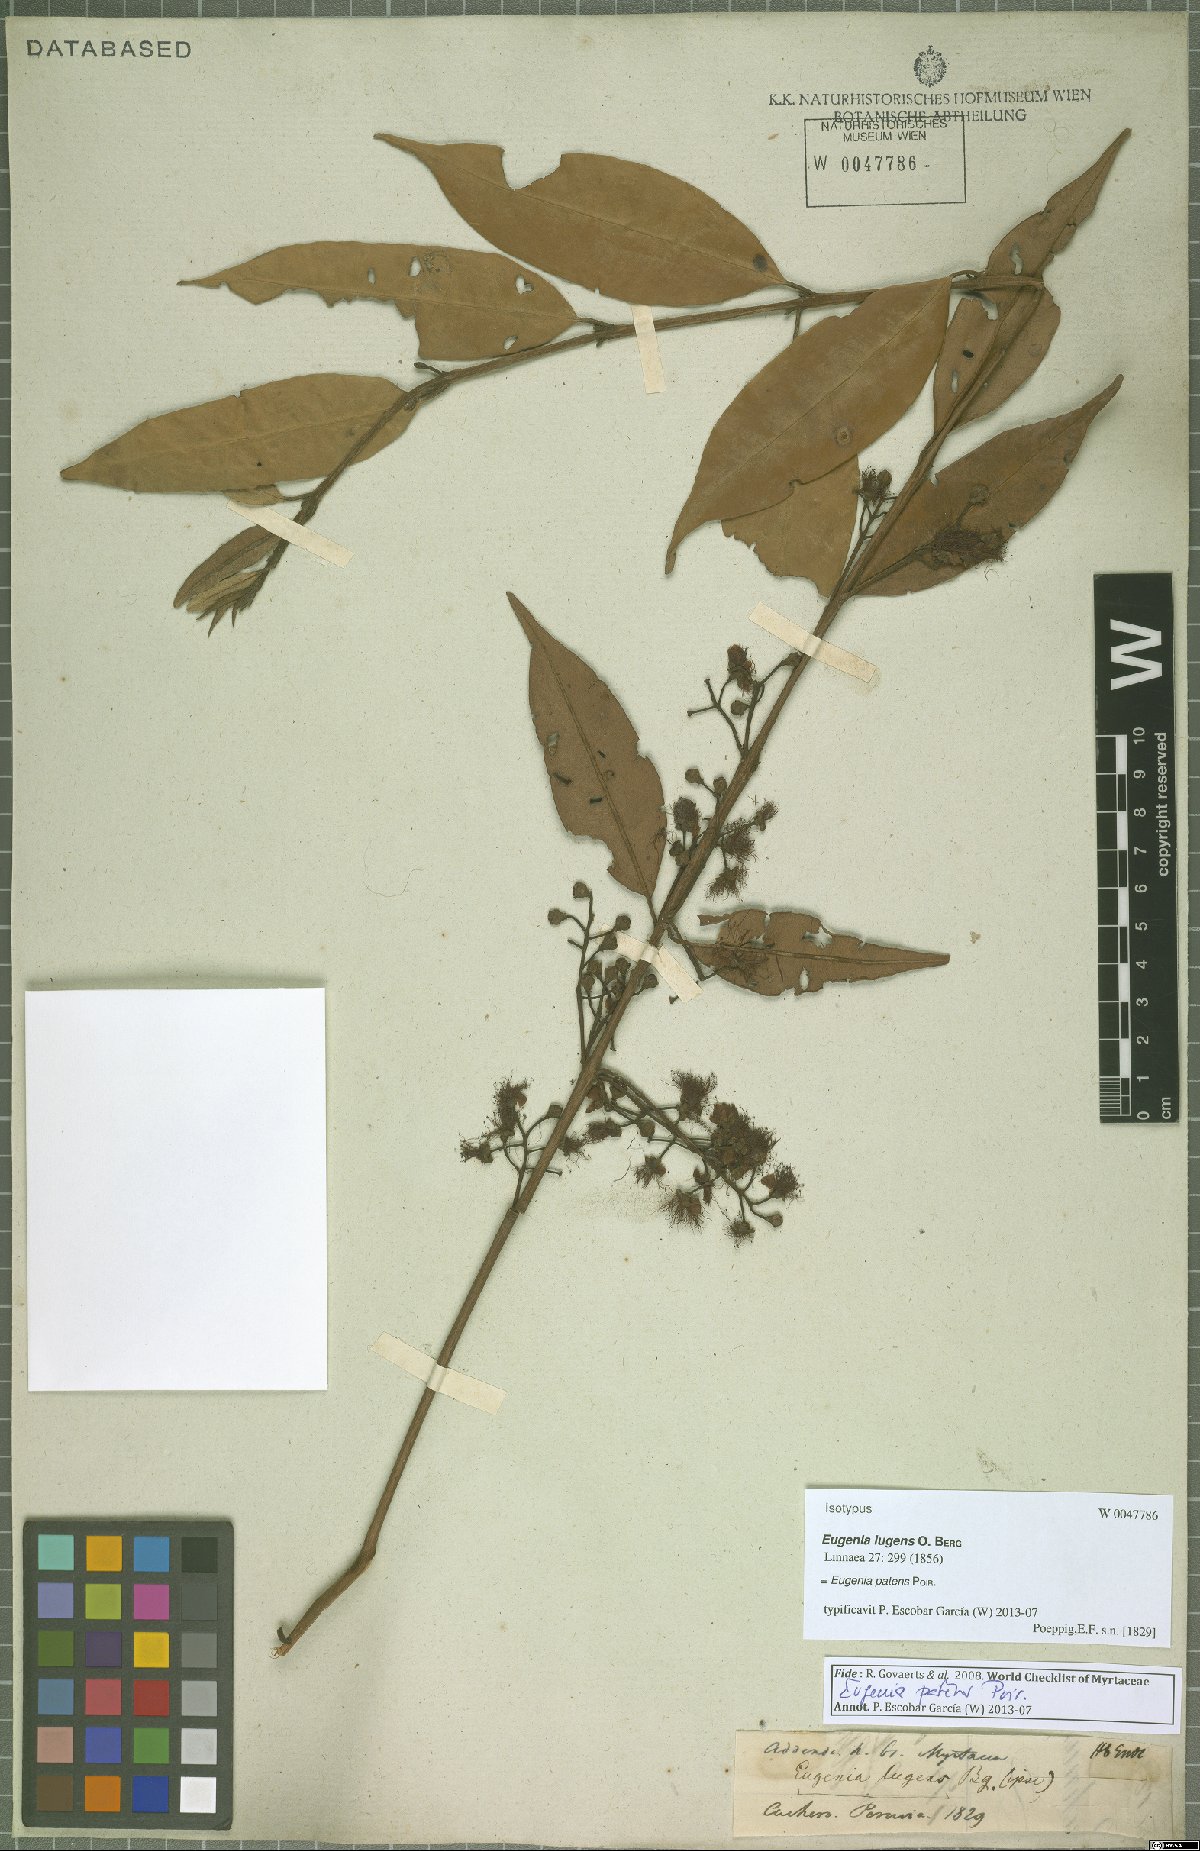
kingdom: Plantae
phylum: Tracheophyta
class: Magnoliopsida
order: Myrtales
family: Myrtaceae
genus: Eugenia
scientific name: Eugenia patens
